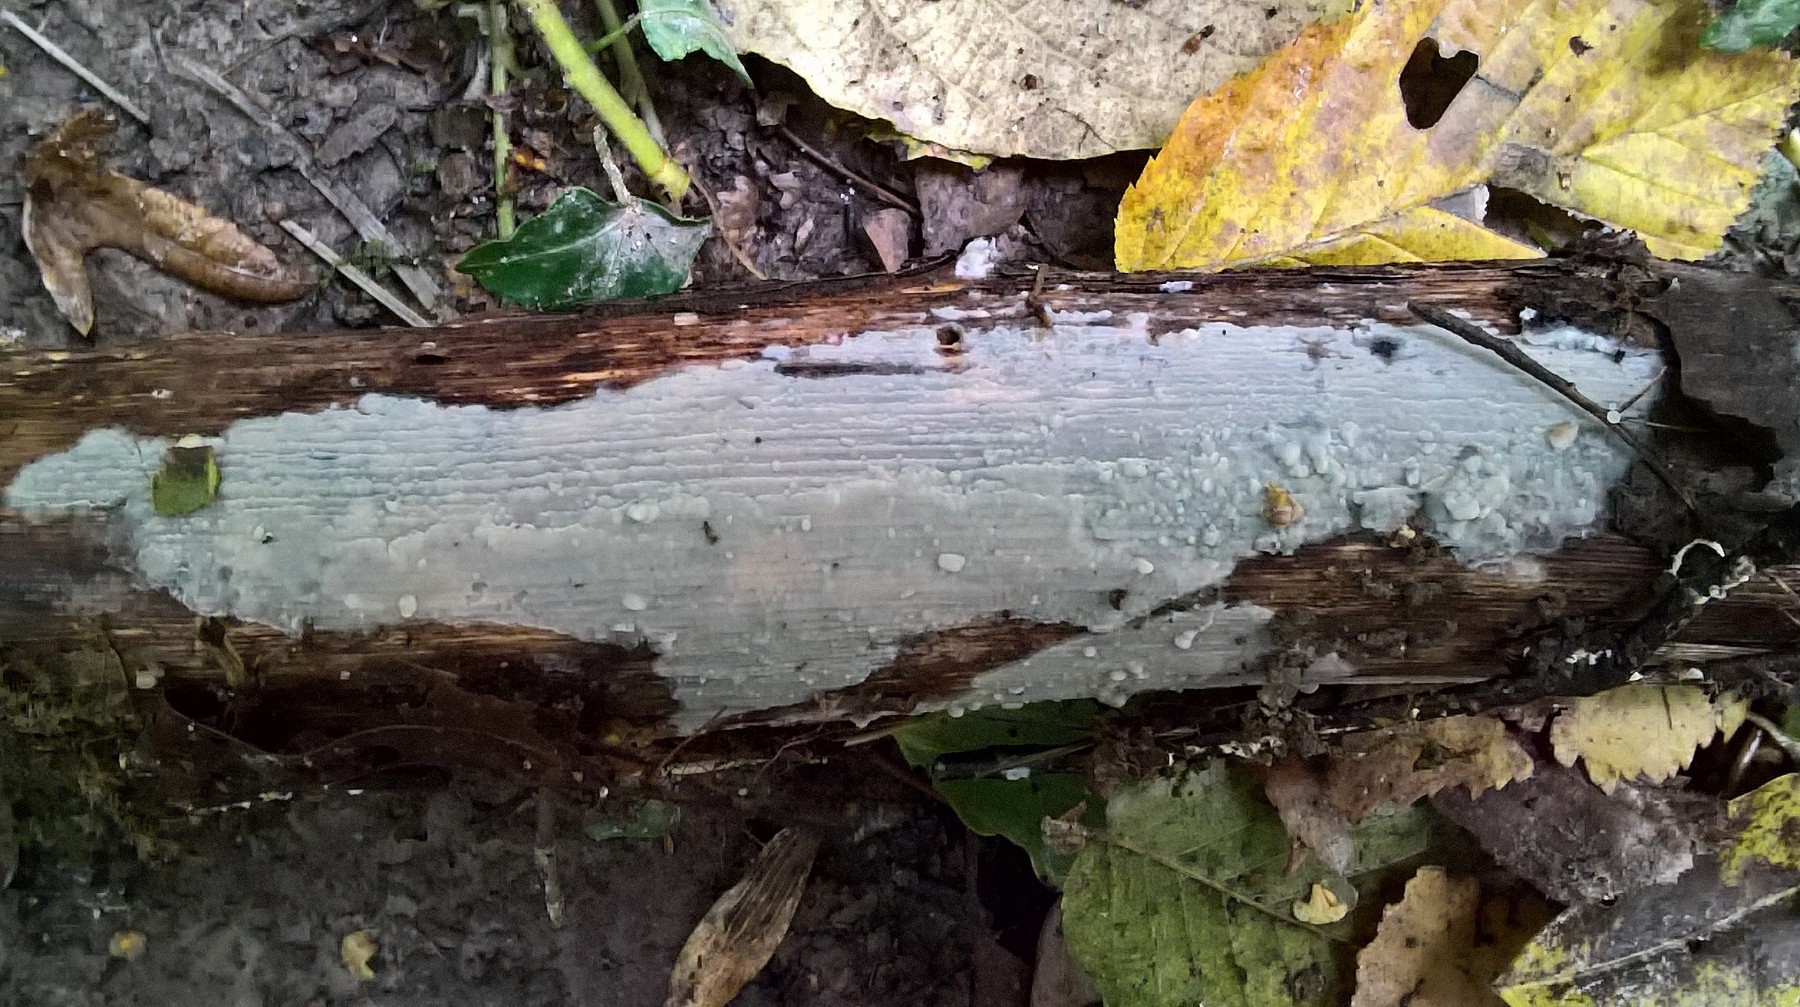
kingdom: Fungi
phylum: Basidiomycota
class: Agaricomycetes
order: Agaricales
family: Radulomycetaceae
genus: Radulomyces
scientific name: Radulomyces confluens
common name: glat naftalinskind
